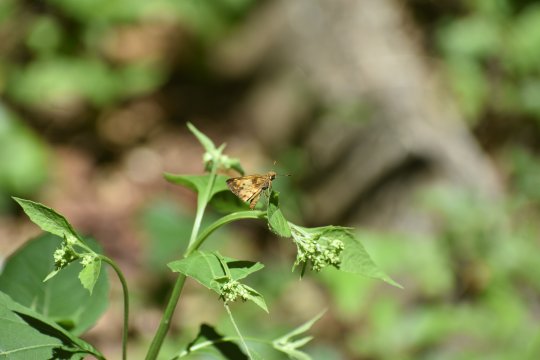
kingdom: Animalia
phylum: Arthropoda
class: Insecta
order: Lepidoptera
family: Hesperiidae
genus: Lon
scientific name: Lon zabulon
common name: Zabulon Skipper
